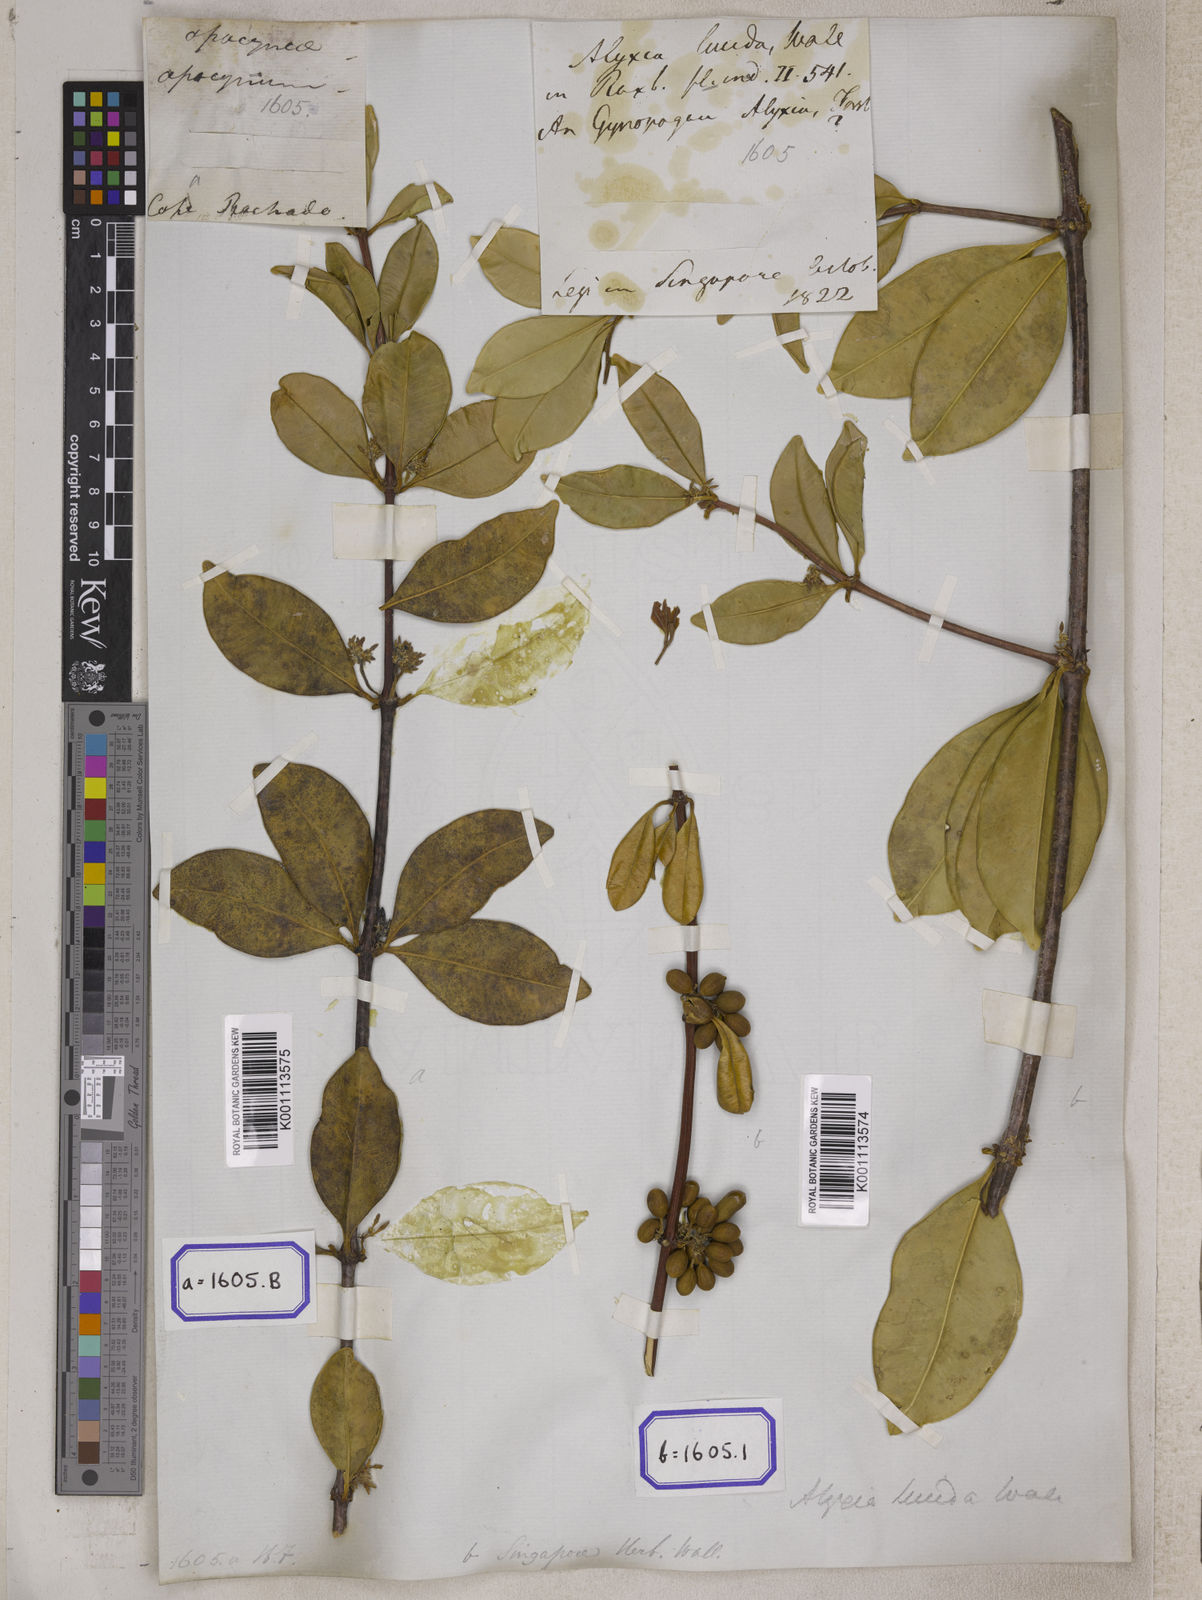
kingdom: Plantae
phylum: Tracheophyta
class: Magnoliopsida
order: Gentianales
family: Apocynaceae
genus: Alyxia
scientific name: Alyxia
